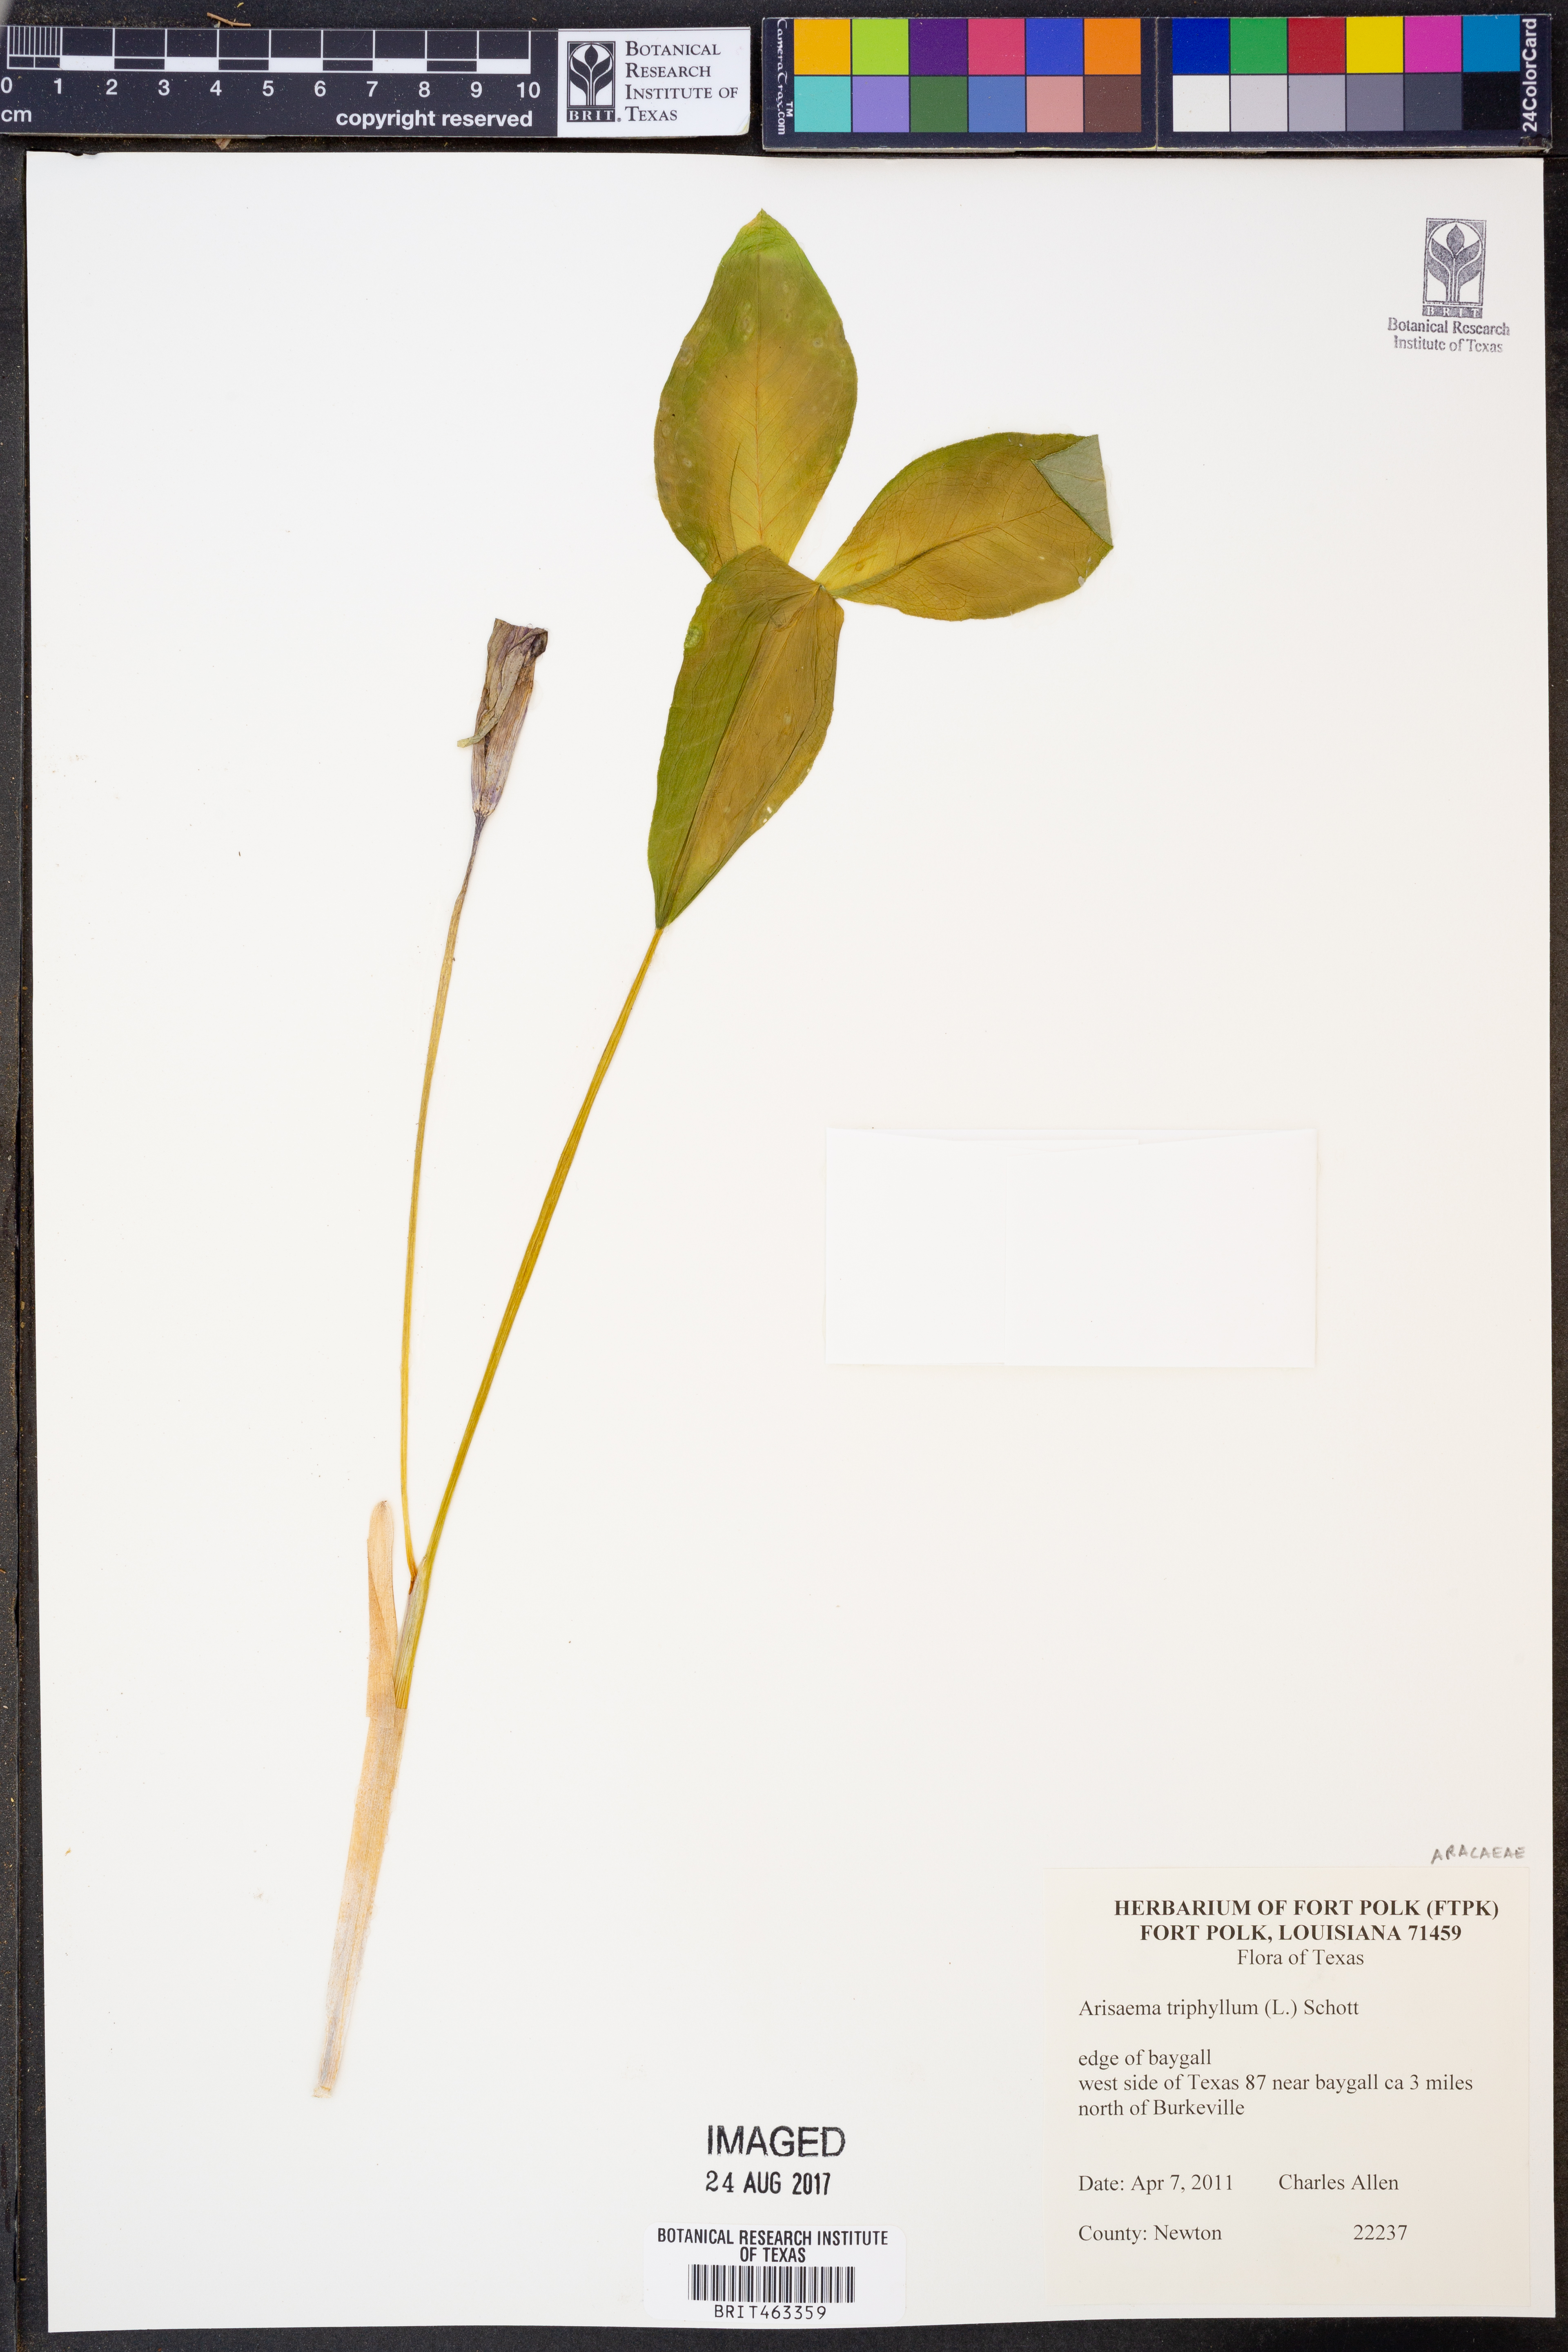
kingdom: Plantae
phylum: Tracheophyta
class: Liliopsida
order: Alismatales
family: Araceae
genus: Arisaema
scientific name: Arisaema triphyllum
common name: Jack-in-the-pulpit
